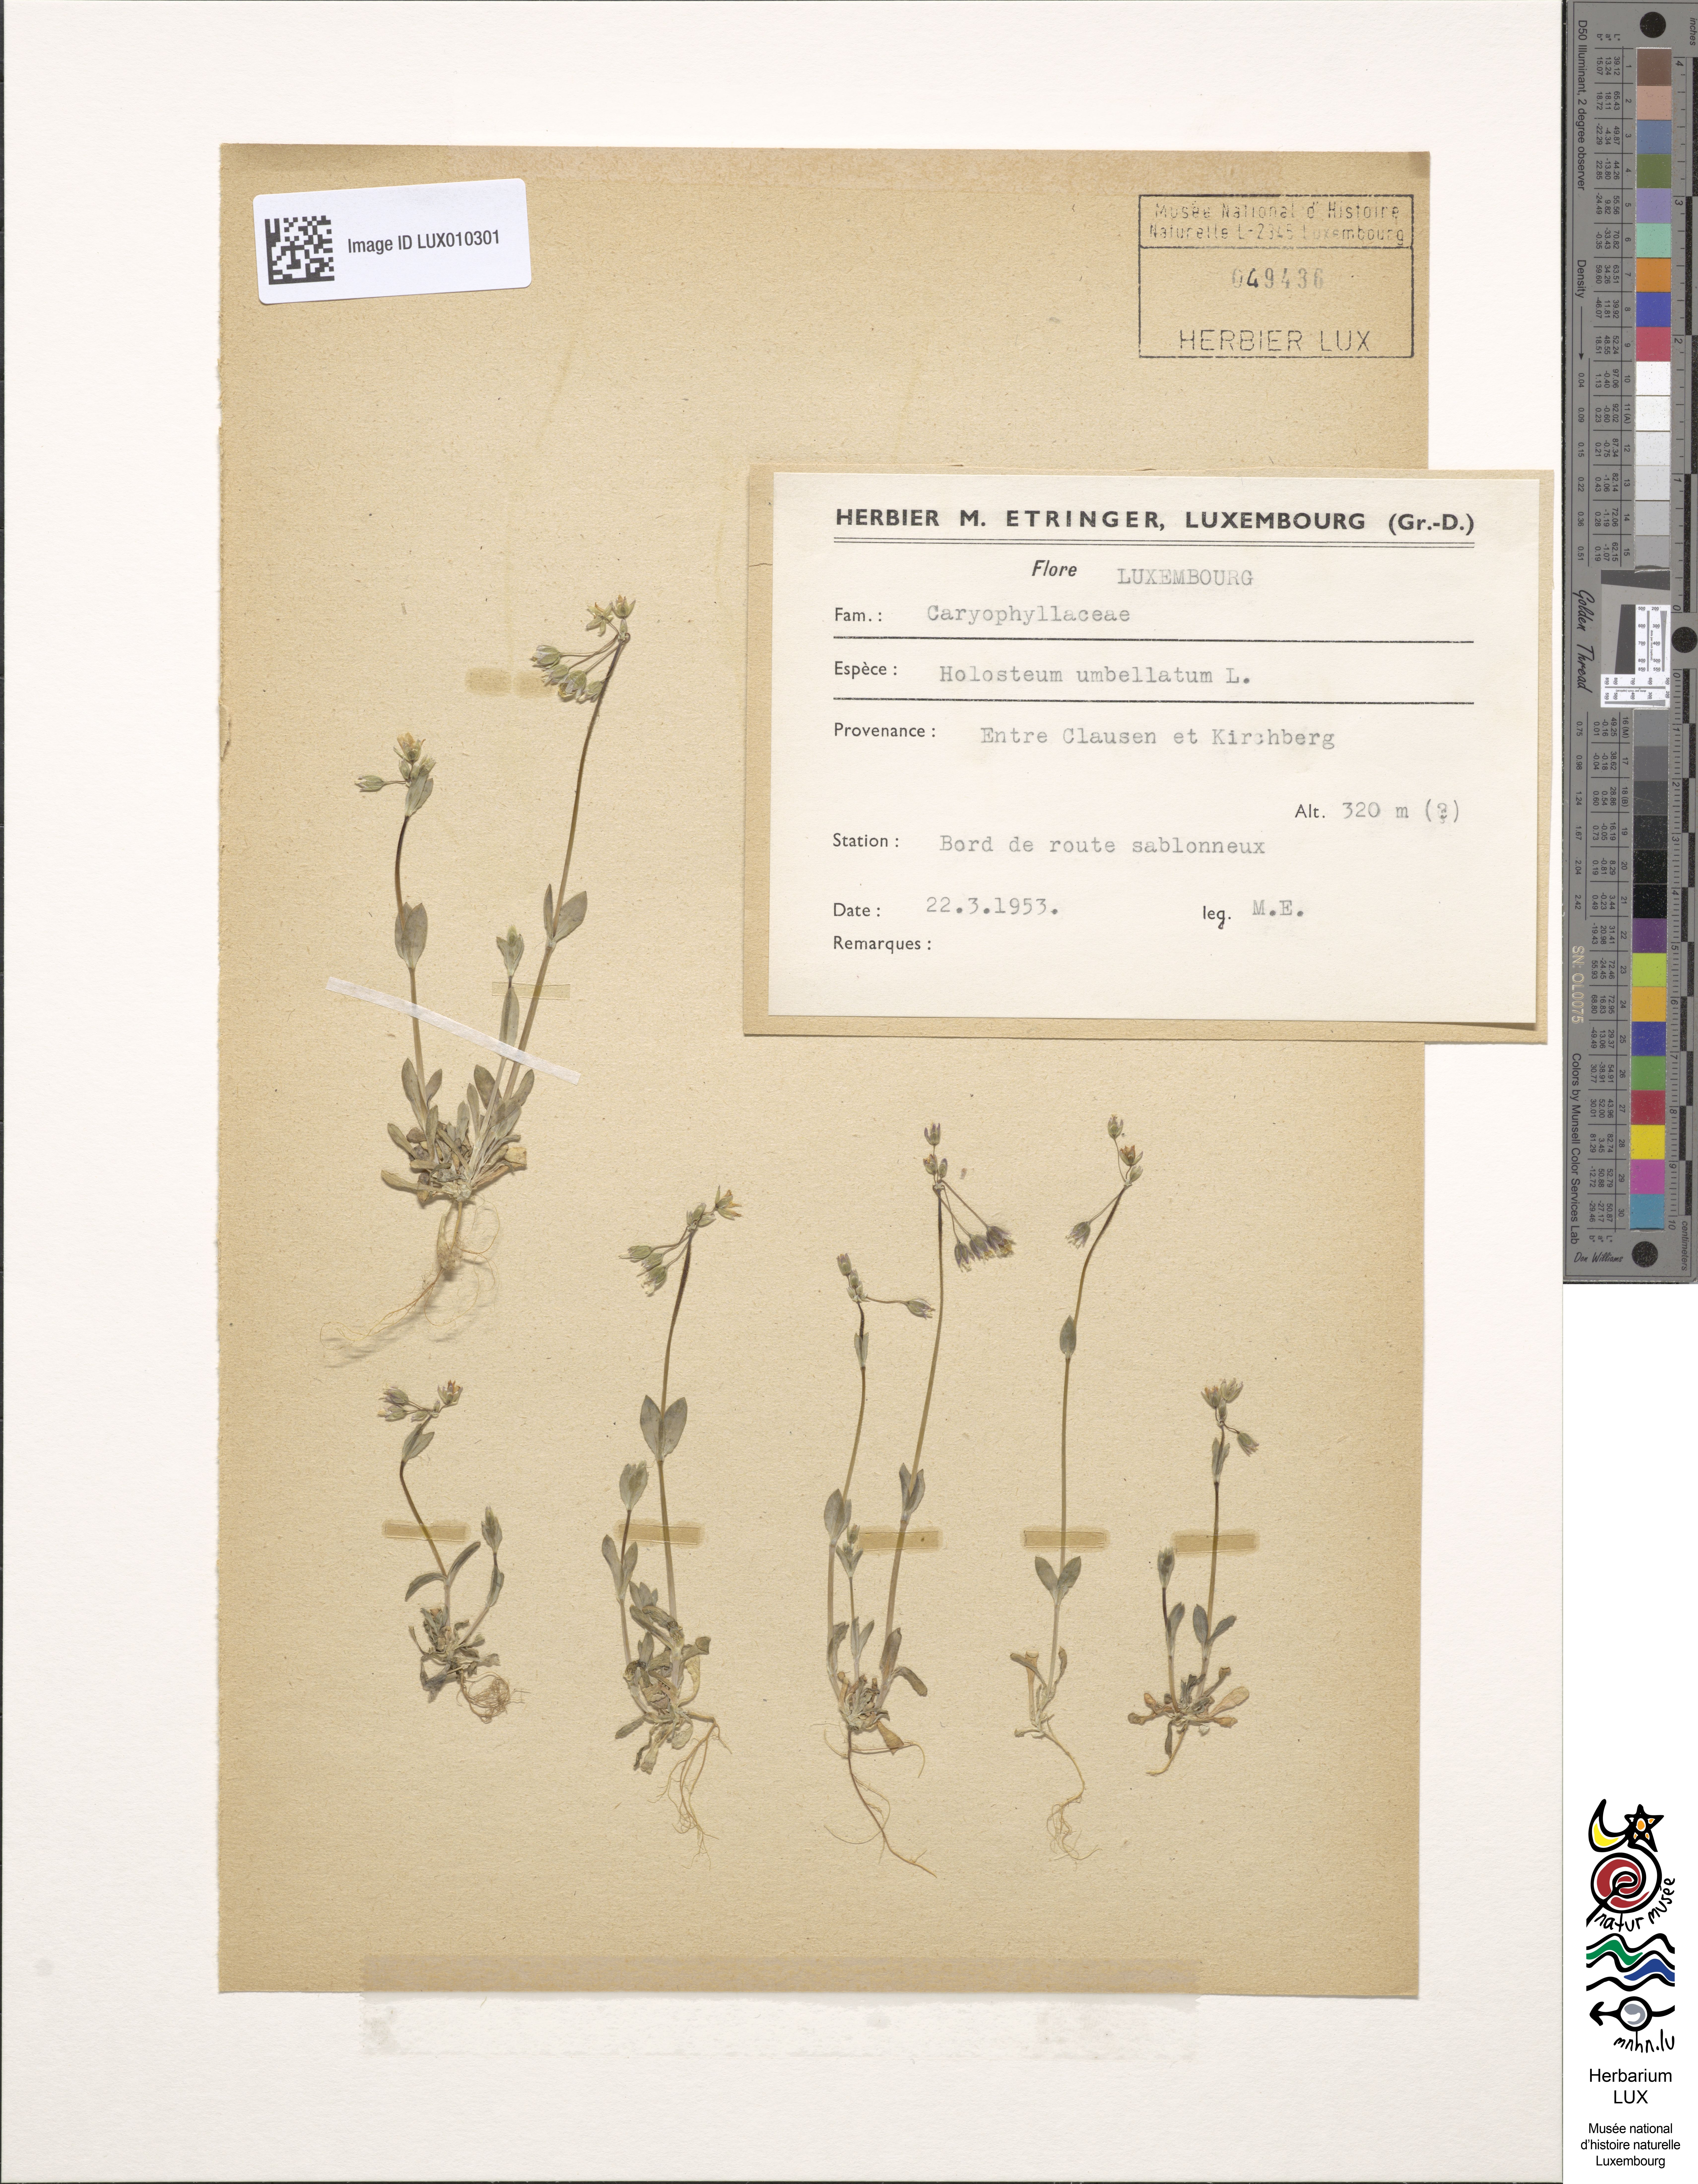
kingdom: Plantae
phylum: Tracheophyta
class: Magnoliopsida
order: Caryophyllales
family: Caryophyllaceae
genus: Holosteum
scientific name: Holosteum umbellatum
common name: Jagged chickweed
